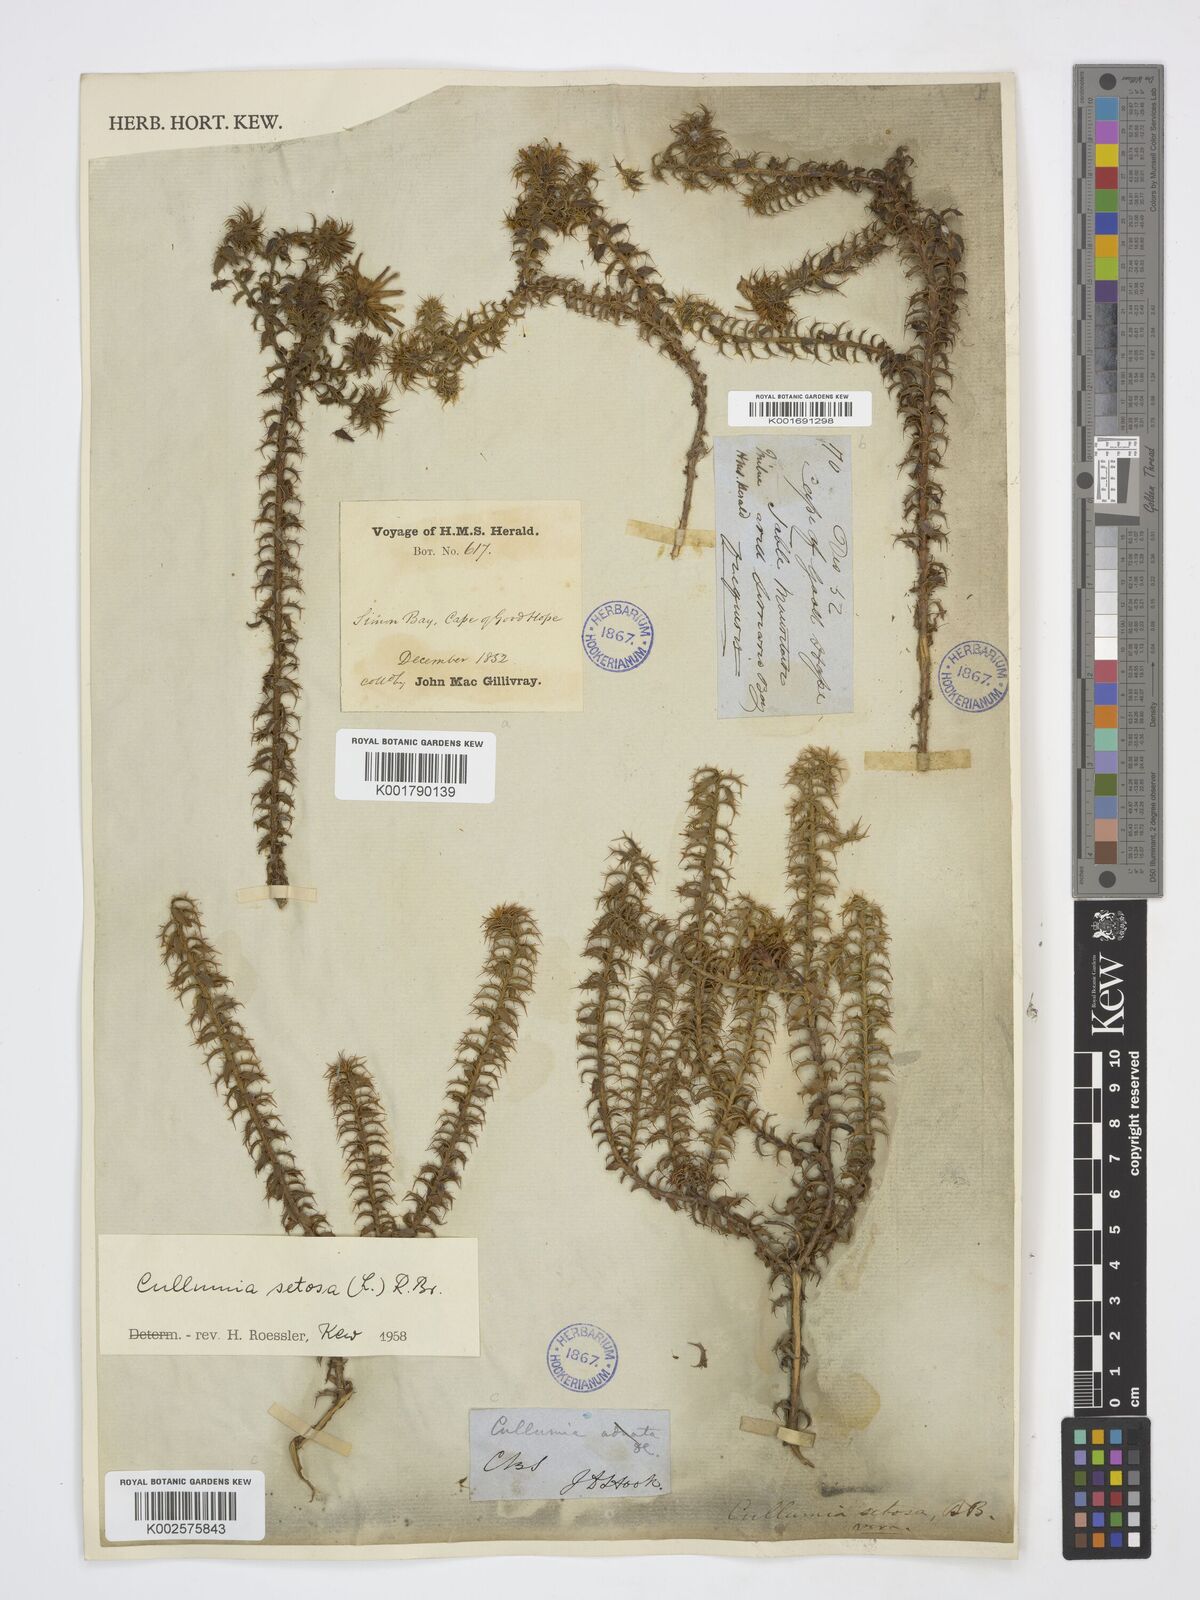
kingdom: Plantae
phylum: Tracheophyta
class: Magnoliopsida
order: Asterales
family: Asteraceae
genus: Cullumia
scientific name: Cullumia setosa
